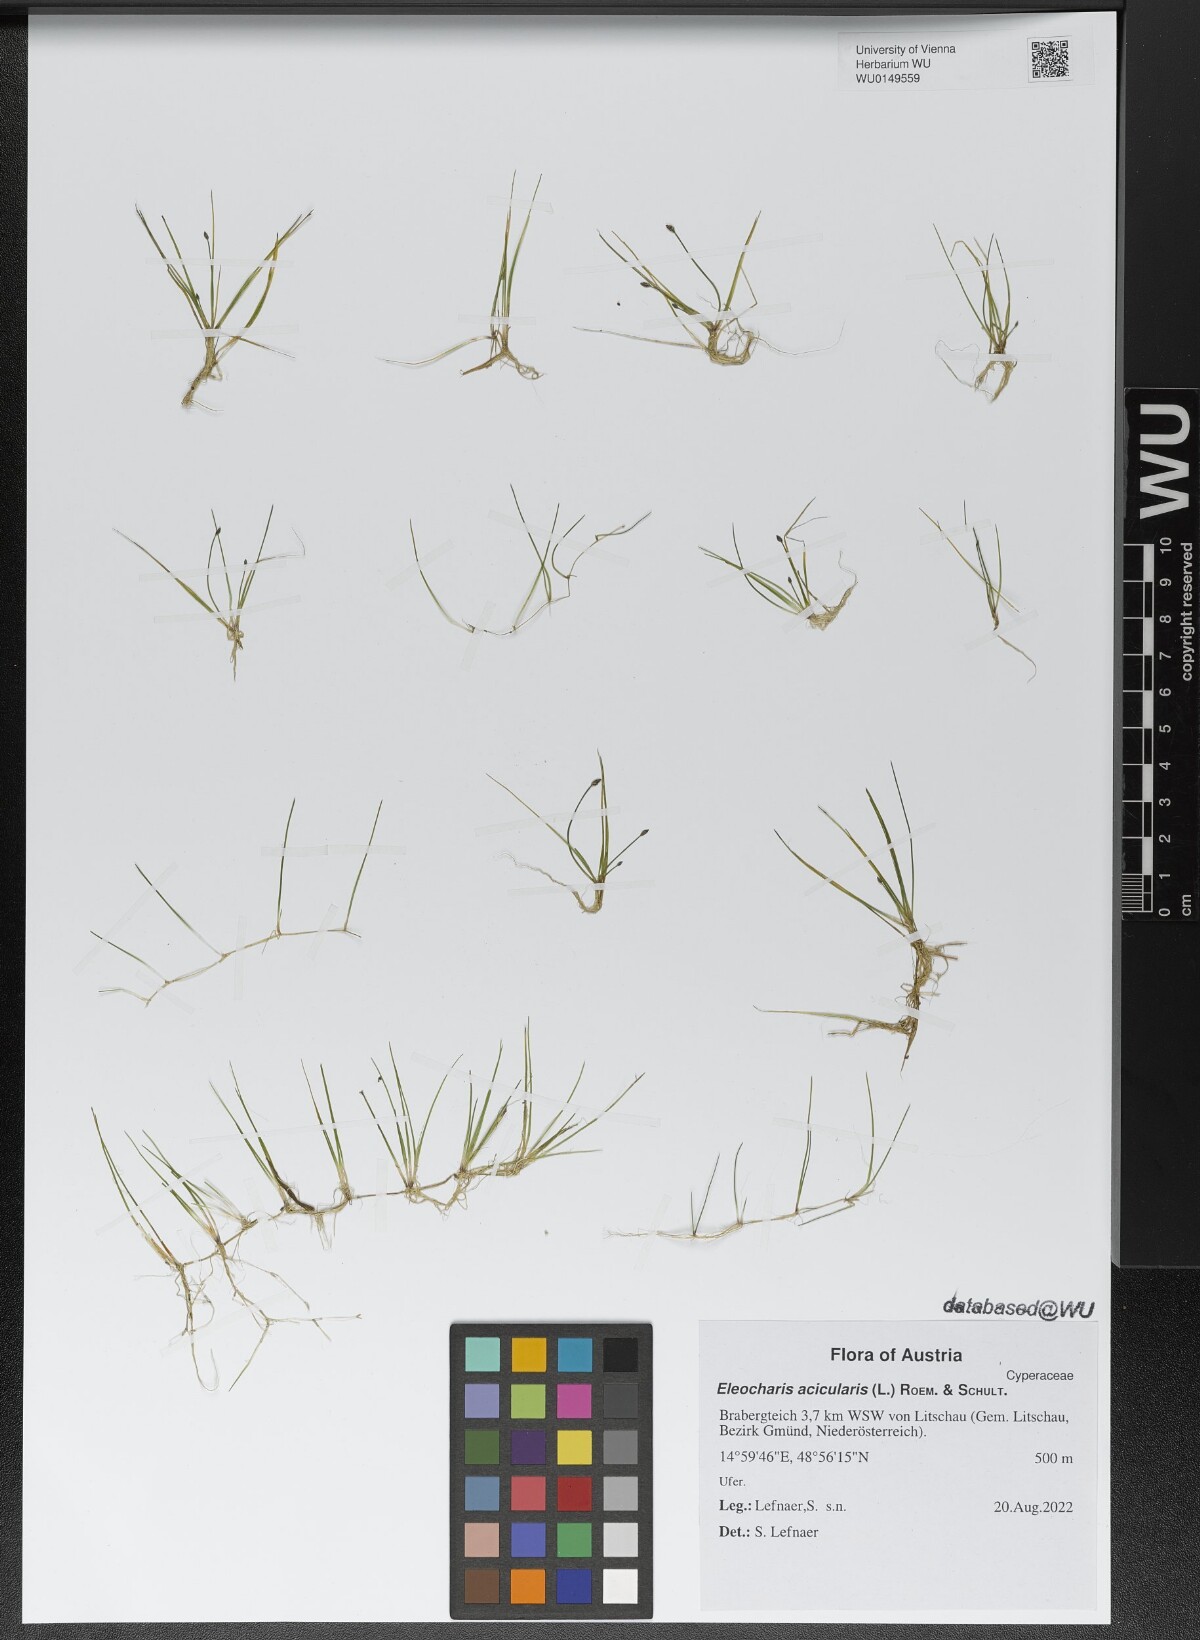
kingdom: Plantae
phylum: Tracheophyta
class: Liliopsida
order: Poales
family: Cyperaceae
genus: Eleocharis
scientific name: Eleocharis acicularis
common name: Needle spike-rush
